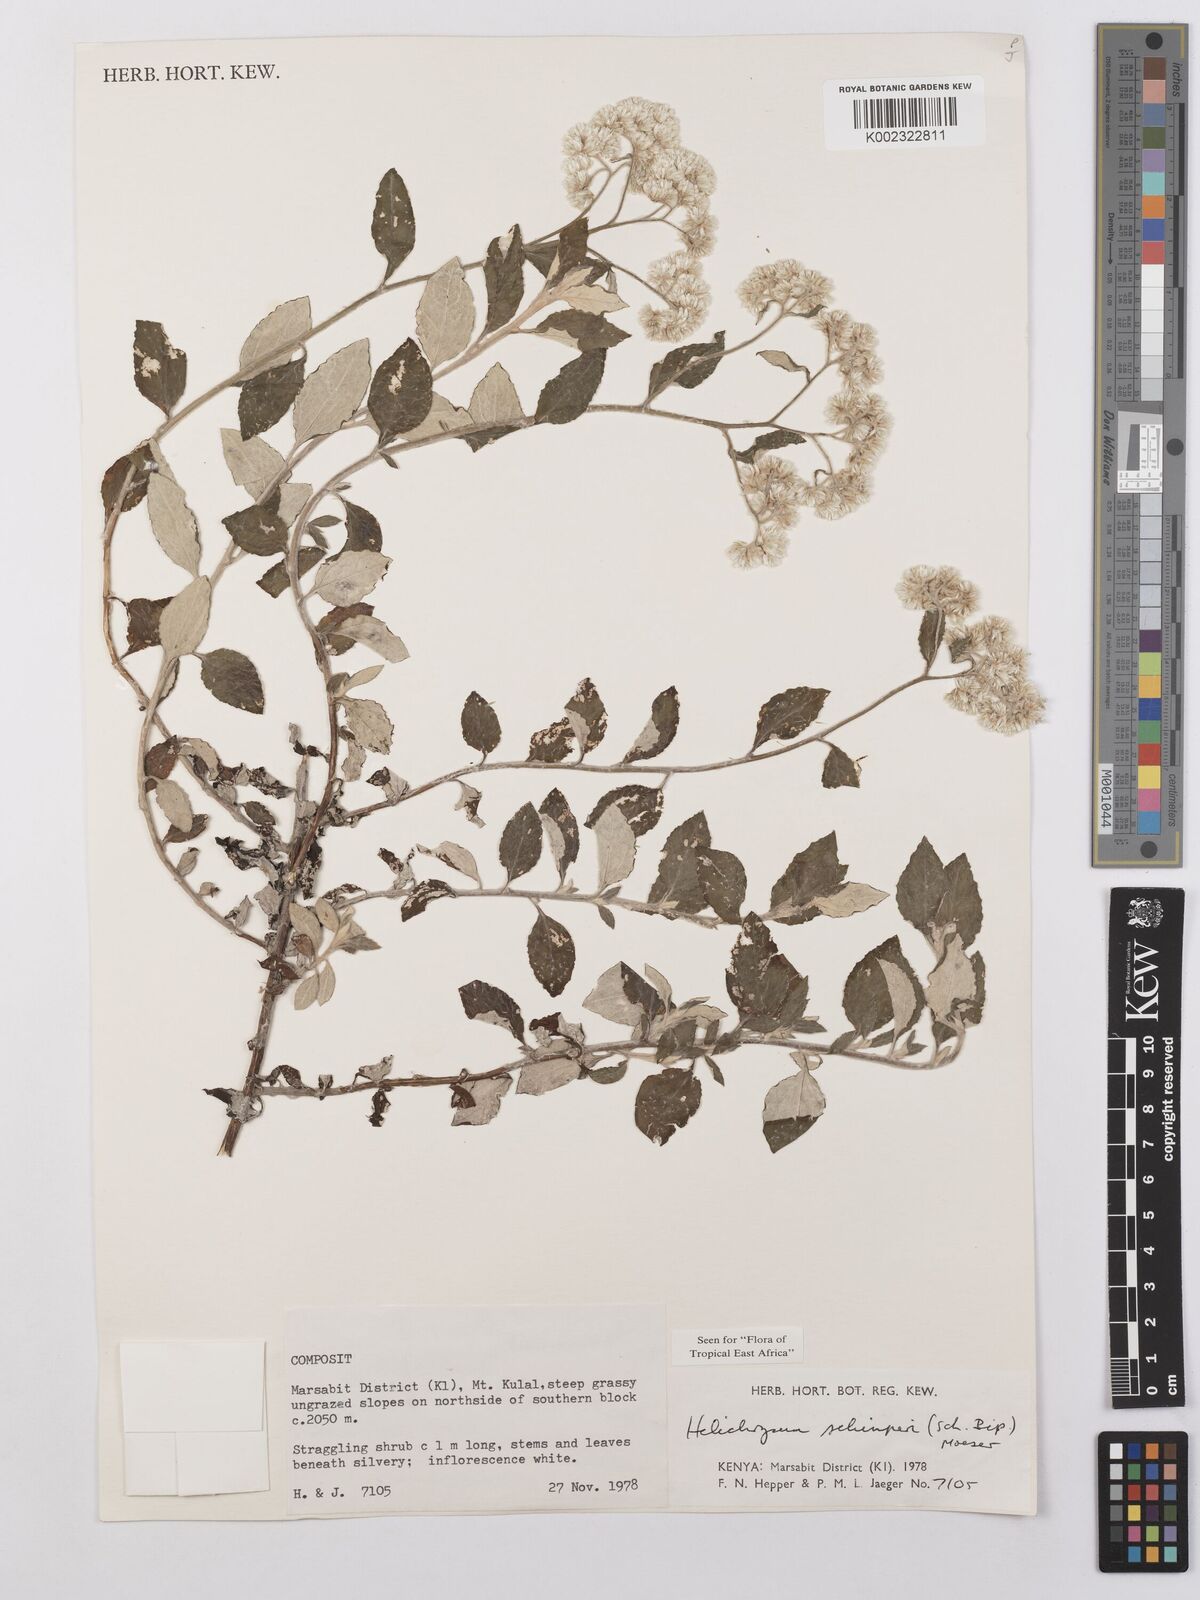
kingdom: Plantae
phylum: Tracheophyta
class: Magnoliopsida
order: Asterales
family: Asteraceae
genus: Helichrysum
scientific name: Helichrysum schimperi
